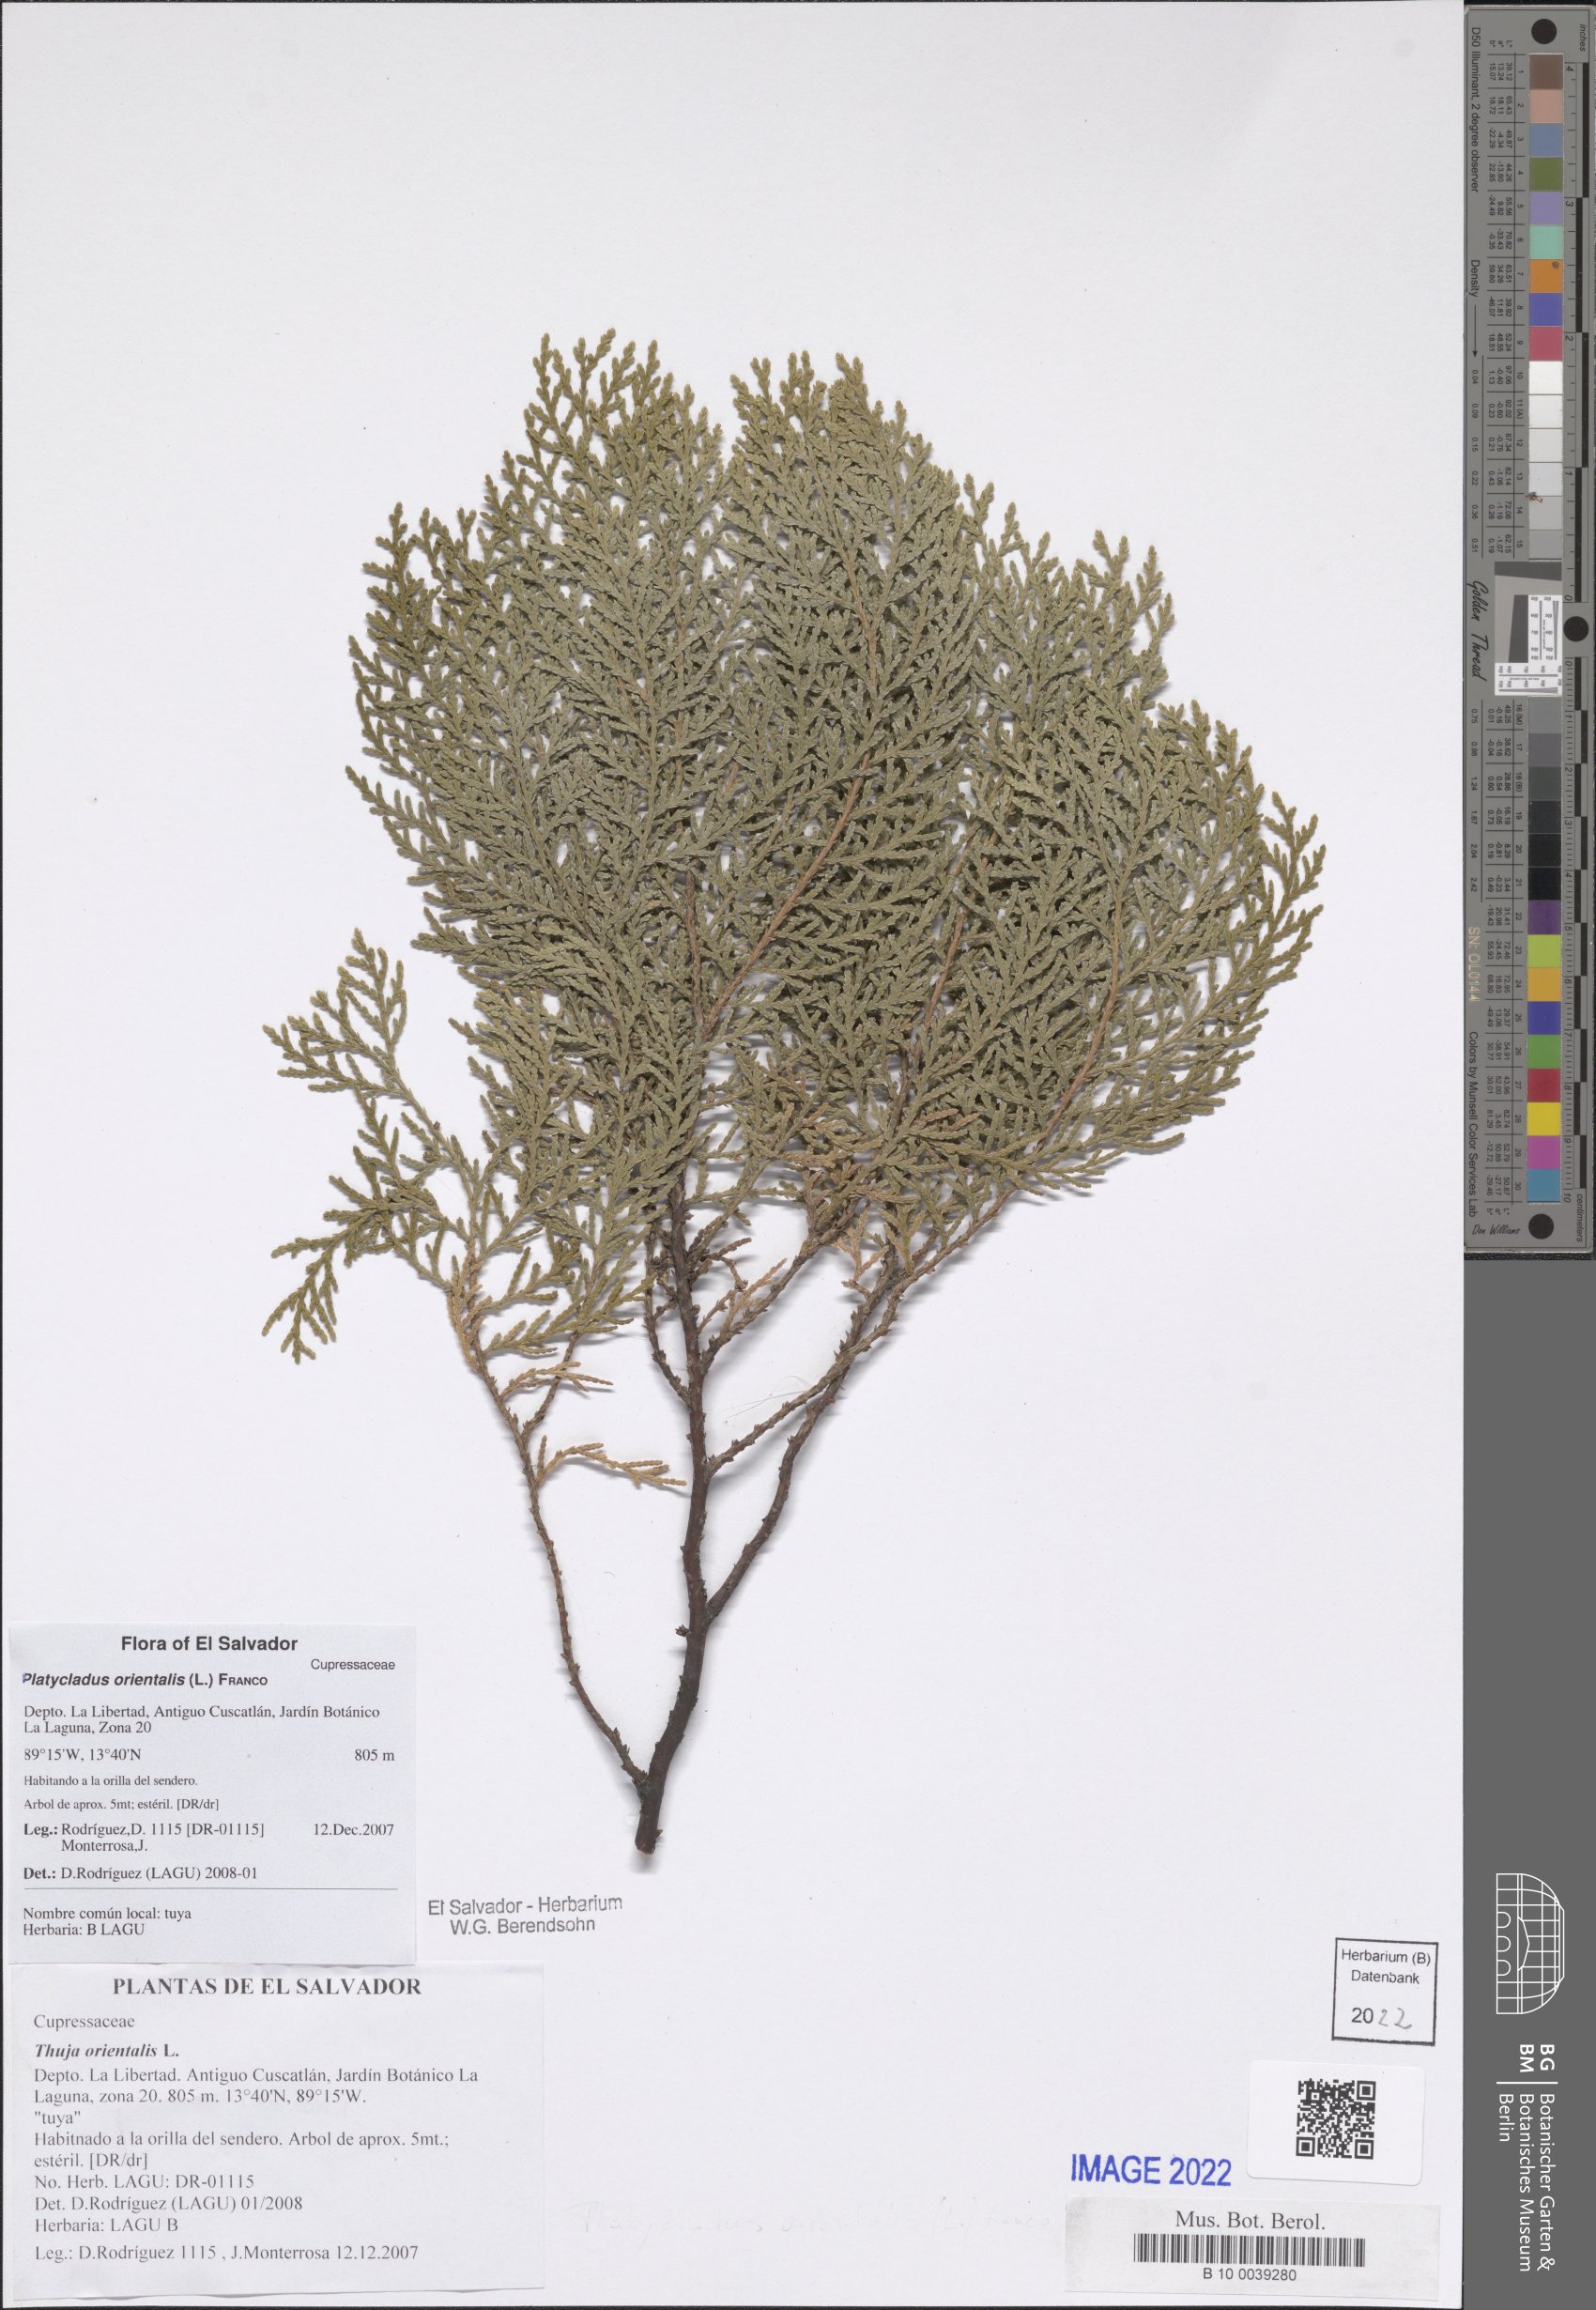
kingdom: Plantae
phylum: Tracheophyta
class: Pinopsida
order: Pinales
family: Cupressaceae
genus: Platycladus
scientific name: Platycladus orientalis
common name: Chinese thuja
